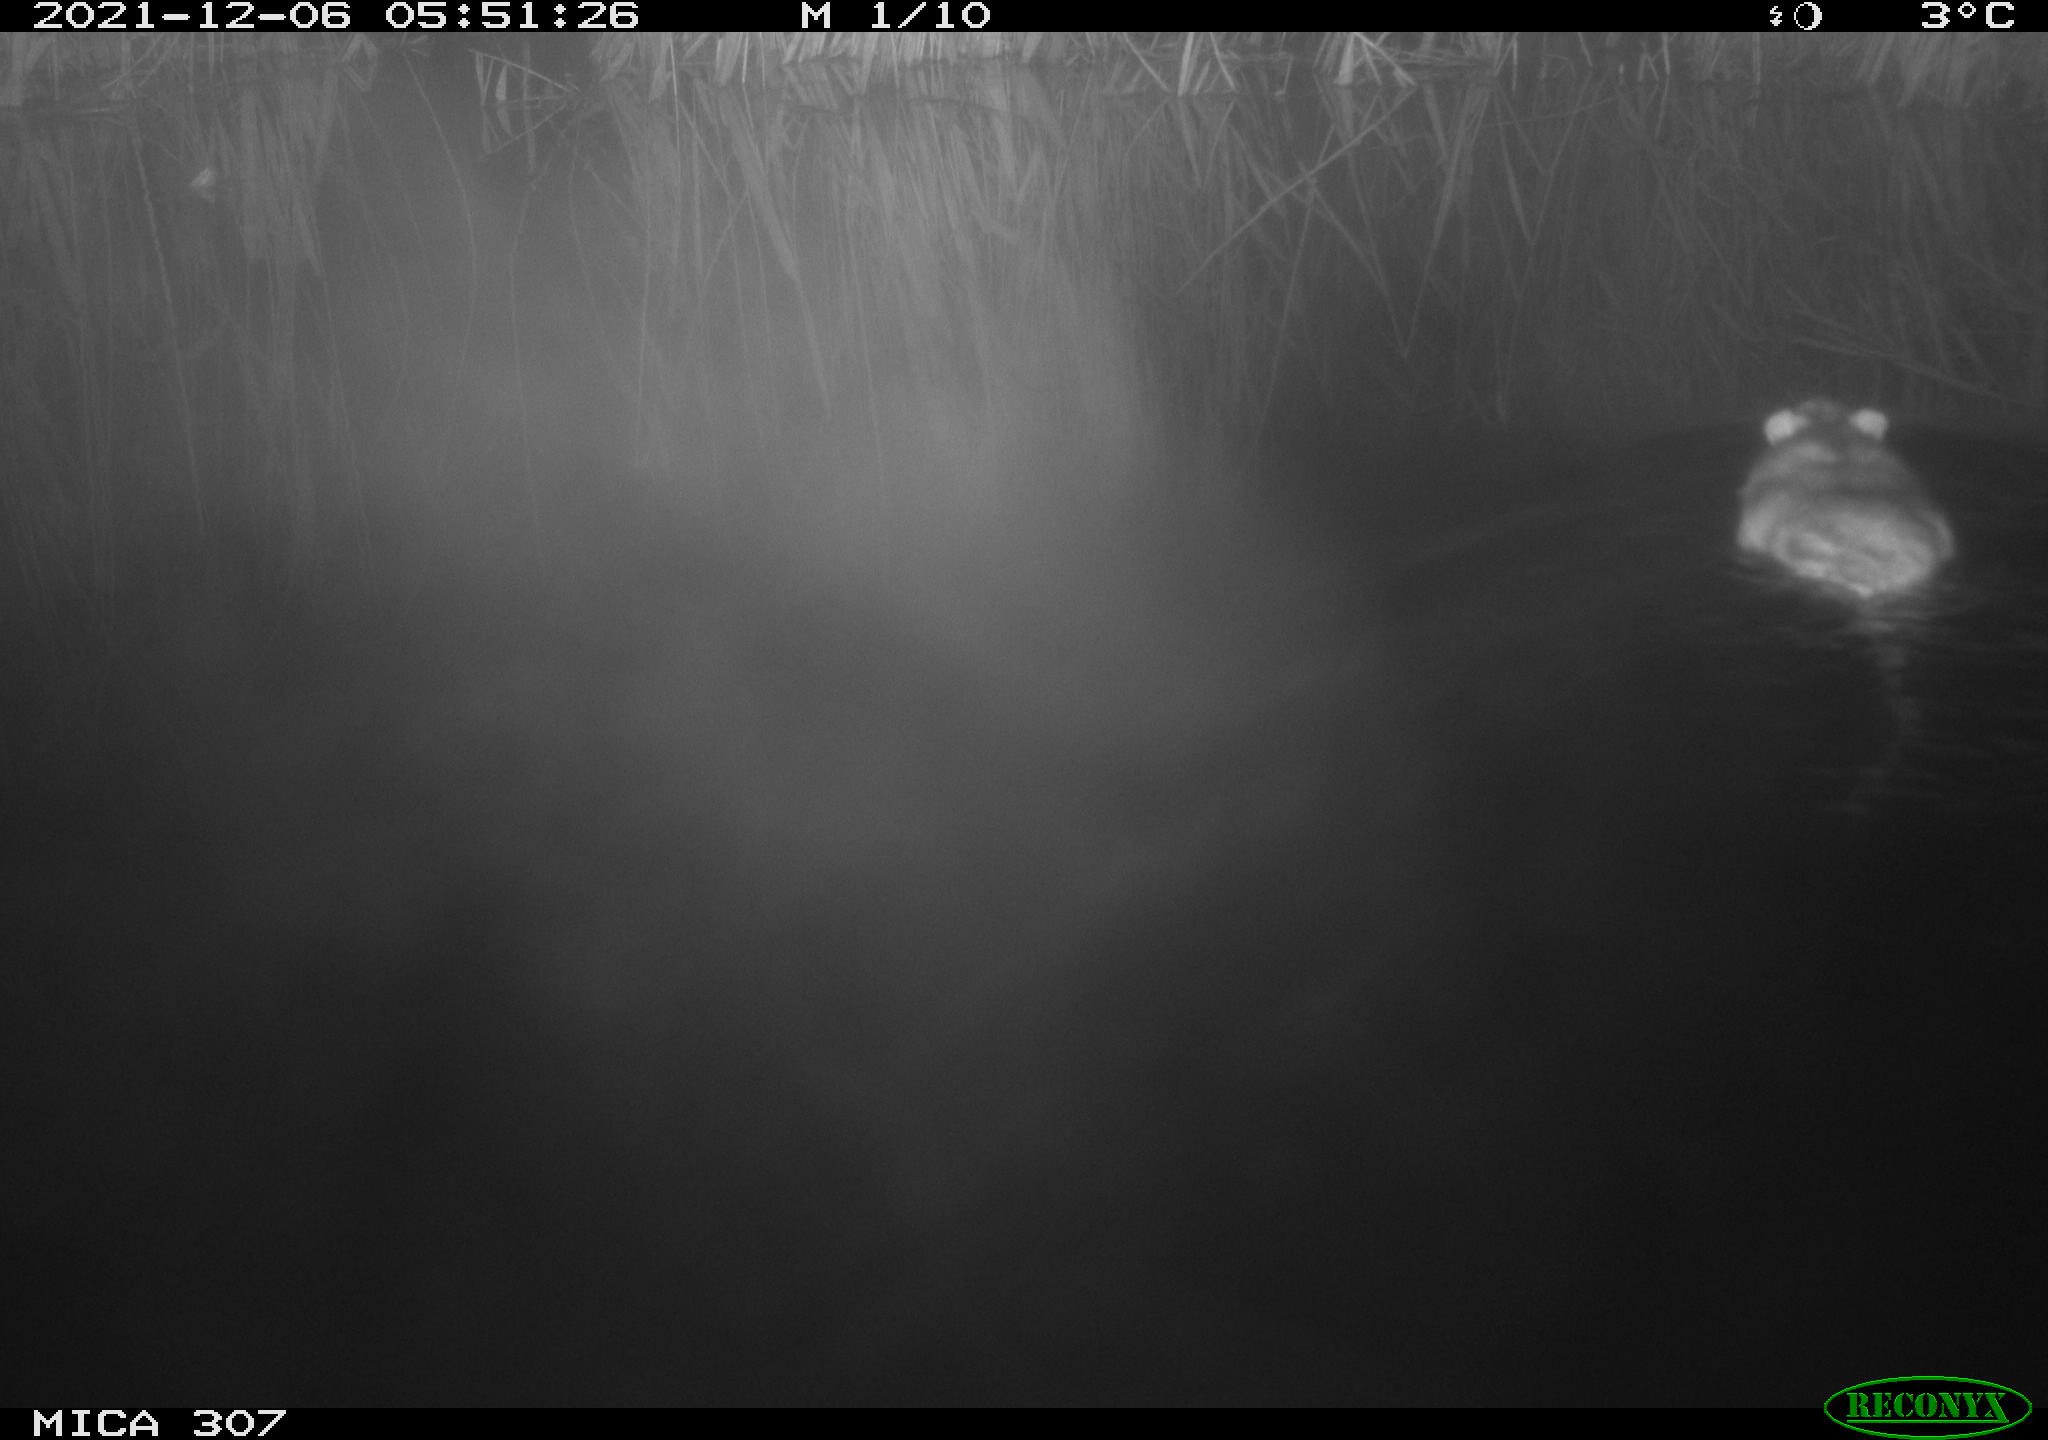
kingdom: Animalia
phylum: Chordata
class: Mammalia
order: Rodentia
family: Muridae
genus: Rattus
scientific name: Rattus norvegicus
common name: Brown rat
